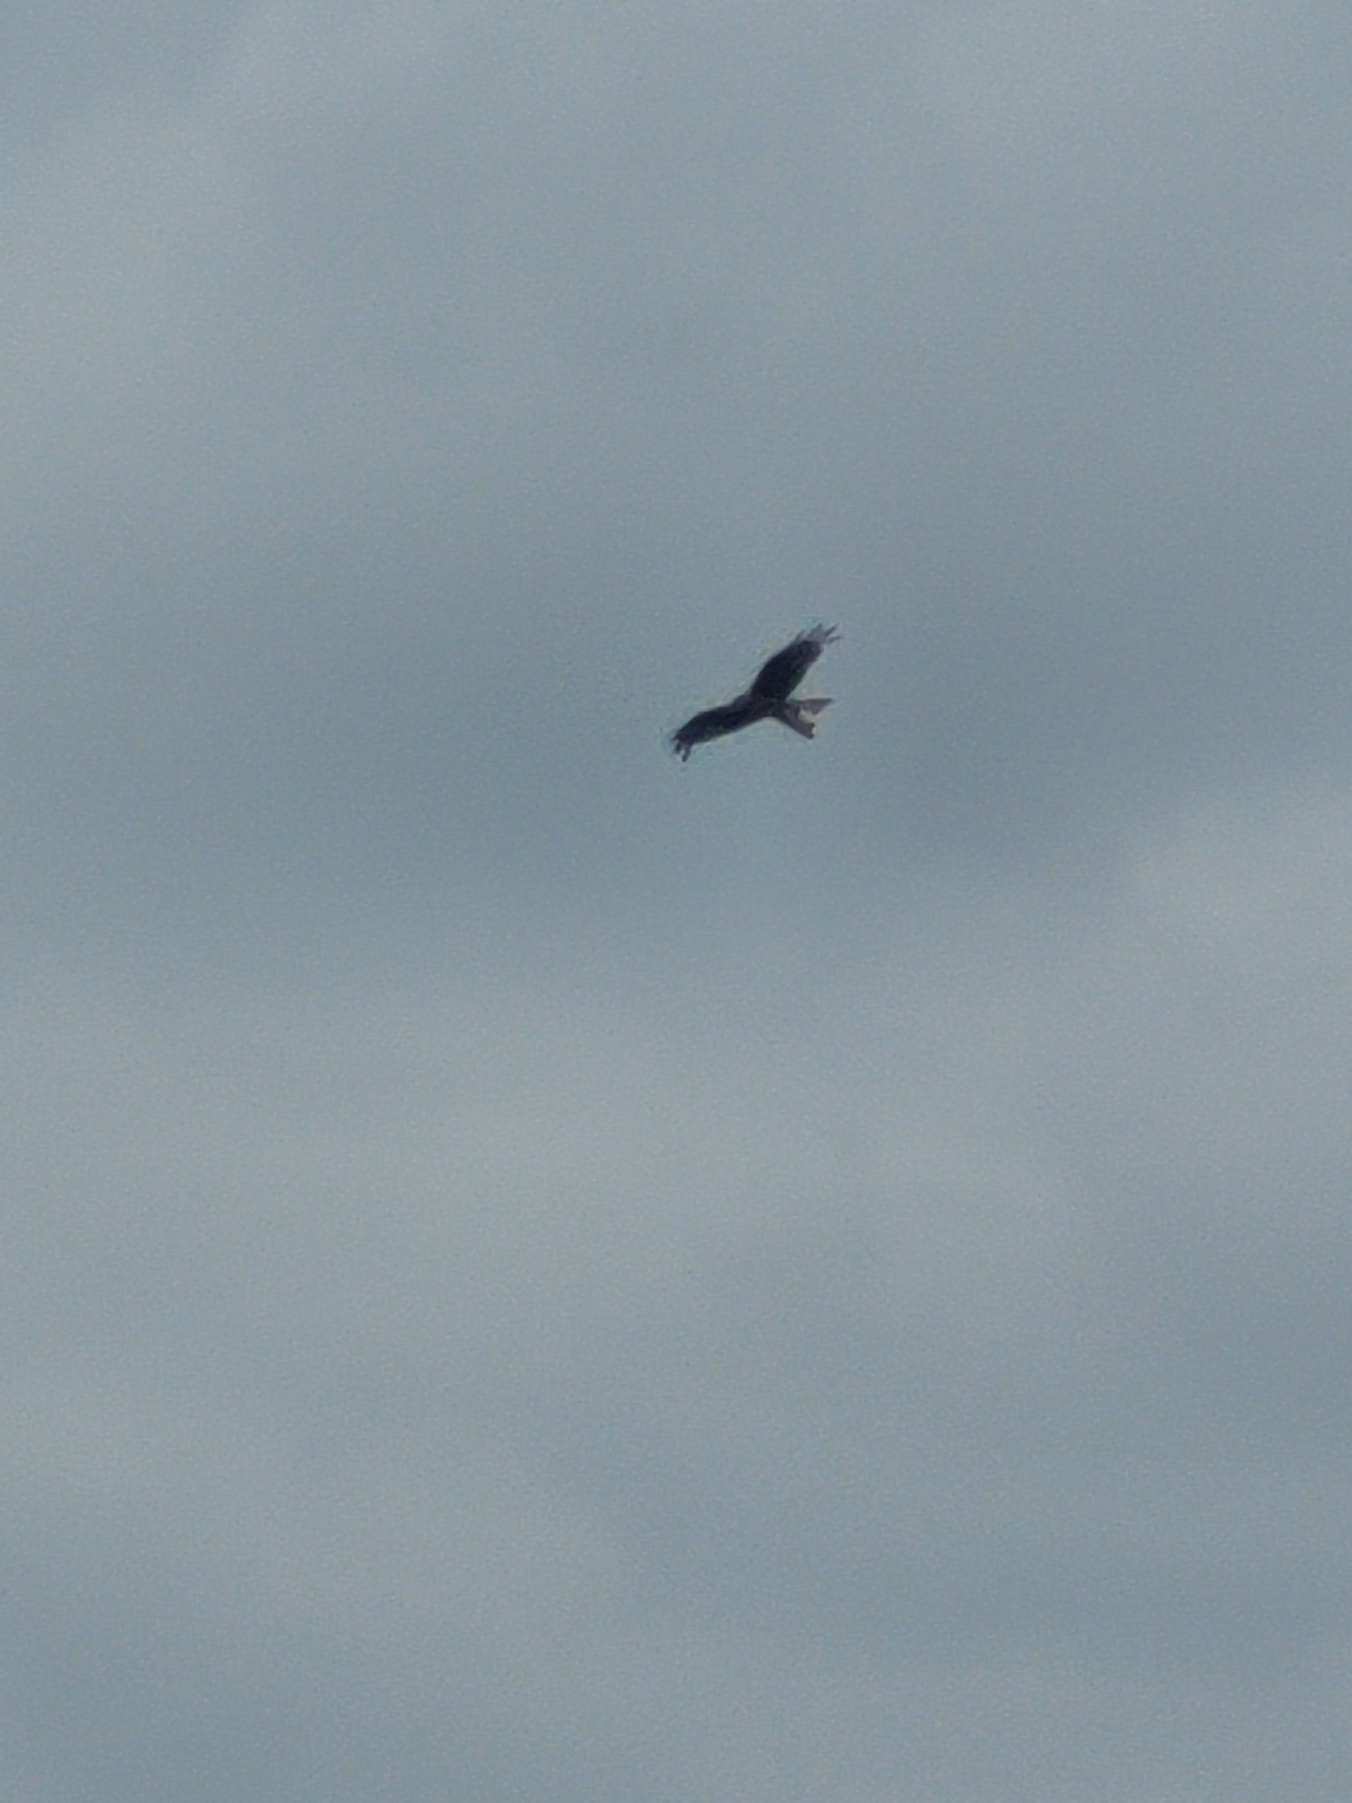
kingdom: Animalia
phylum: Chordata
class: Aves
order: Accipitriformes
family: Accipitridae
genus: Milvus
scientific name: Milvus milvus
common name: Rød glente
